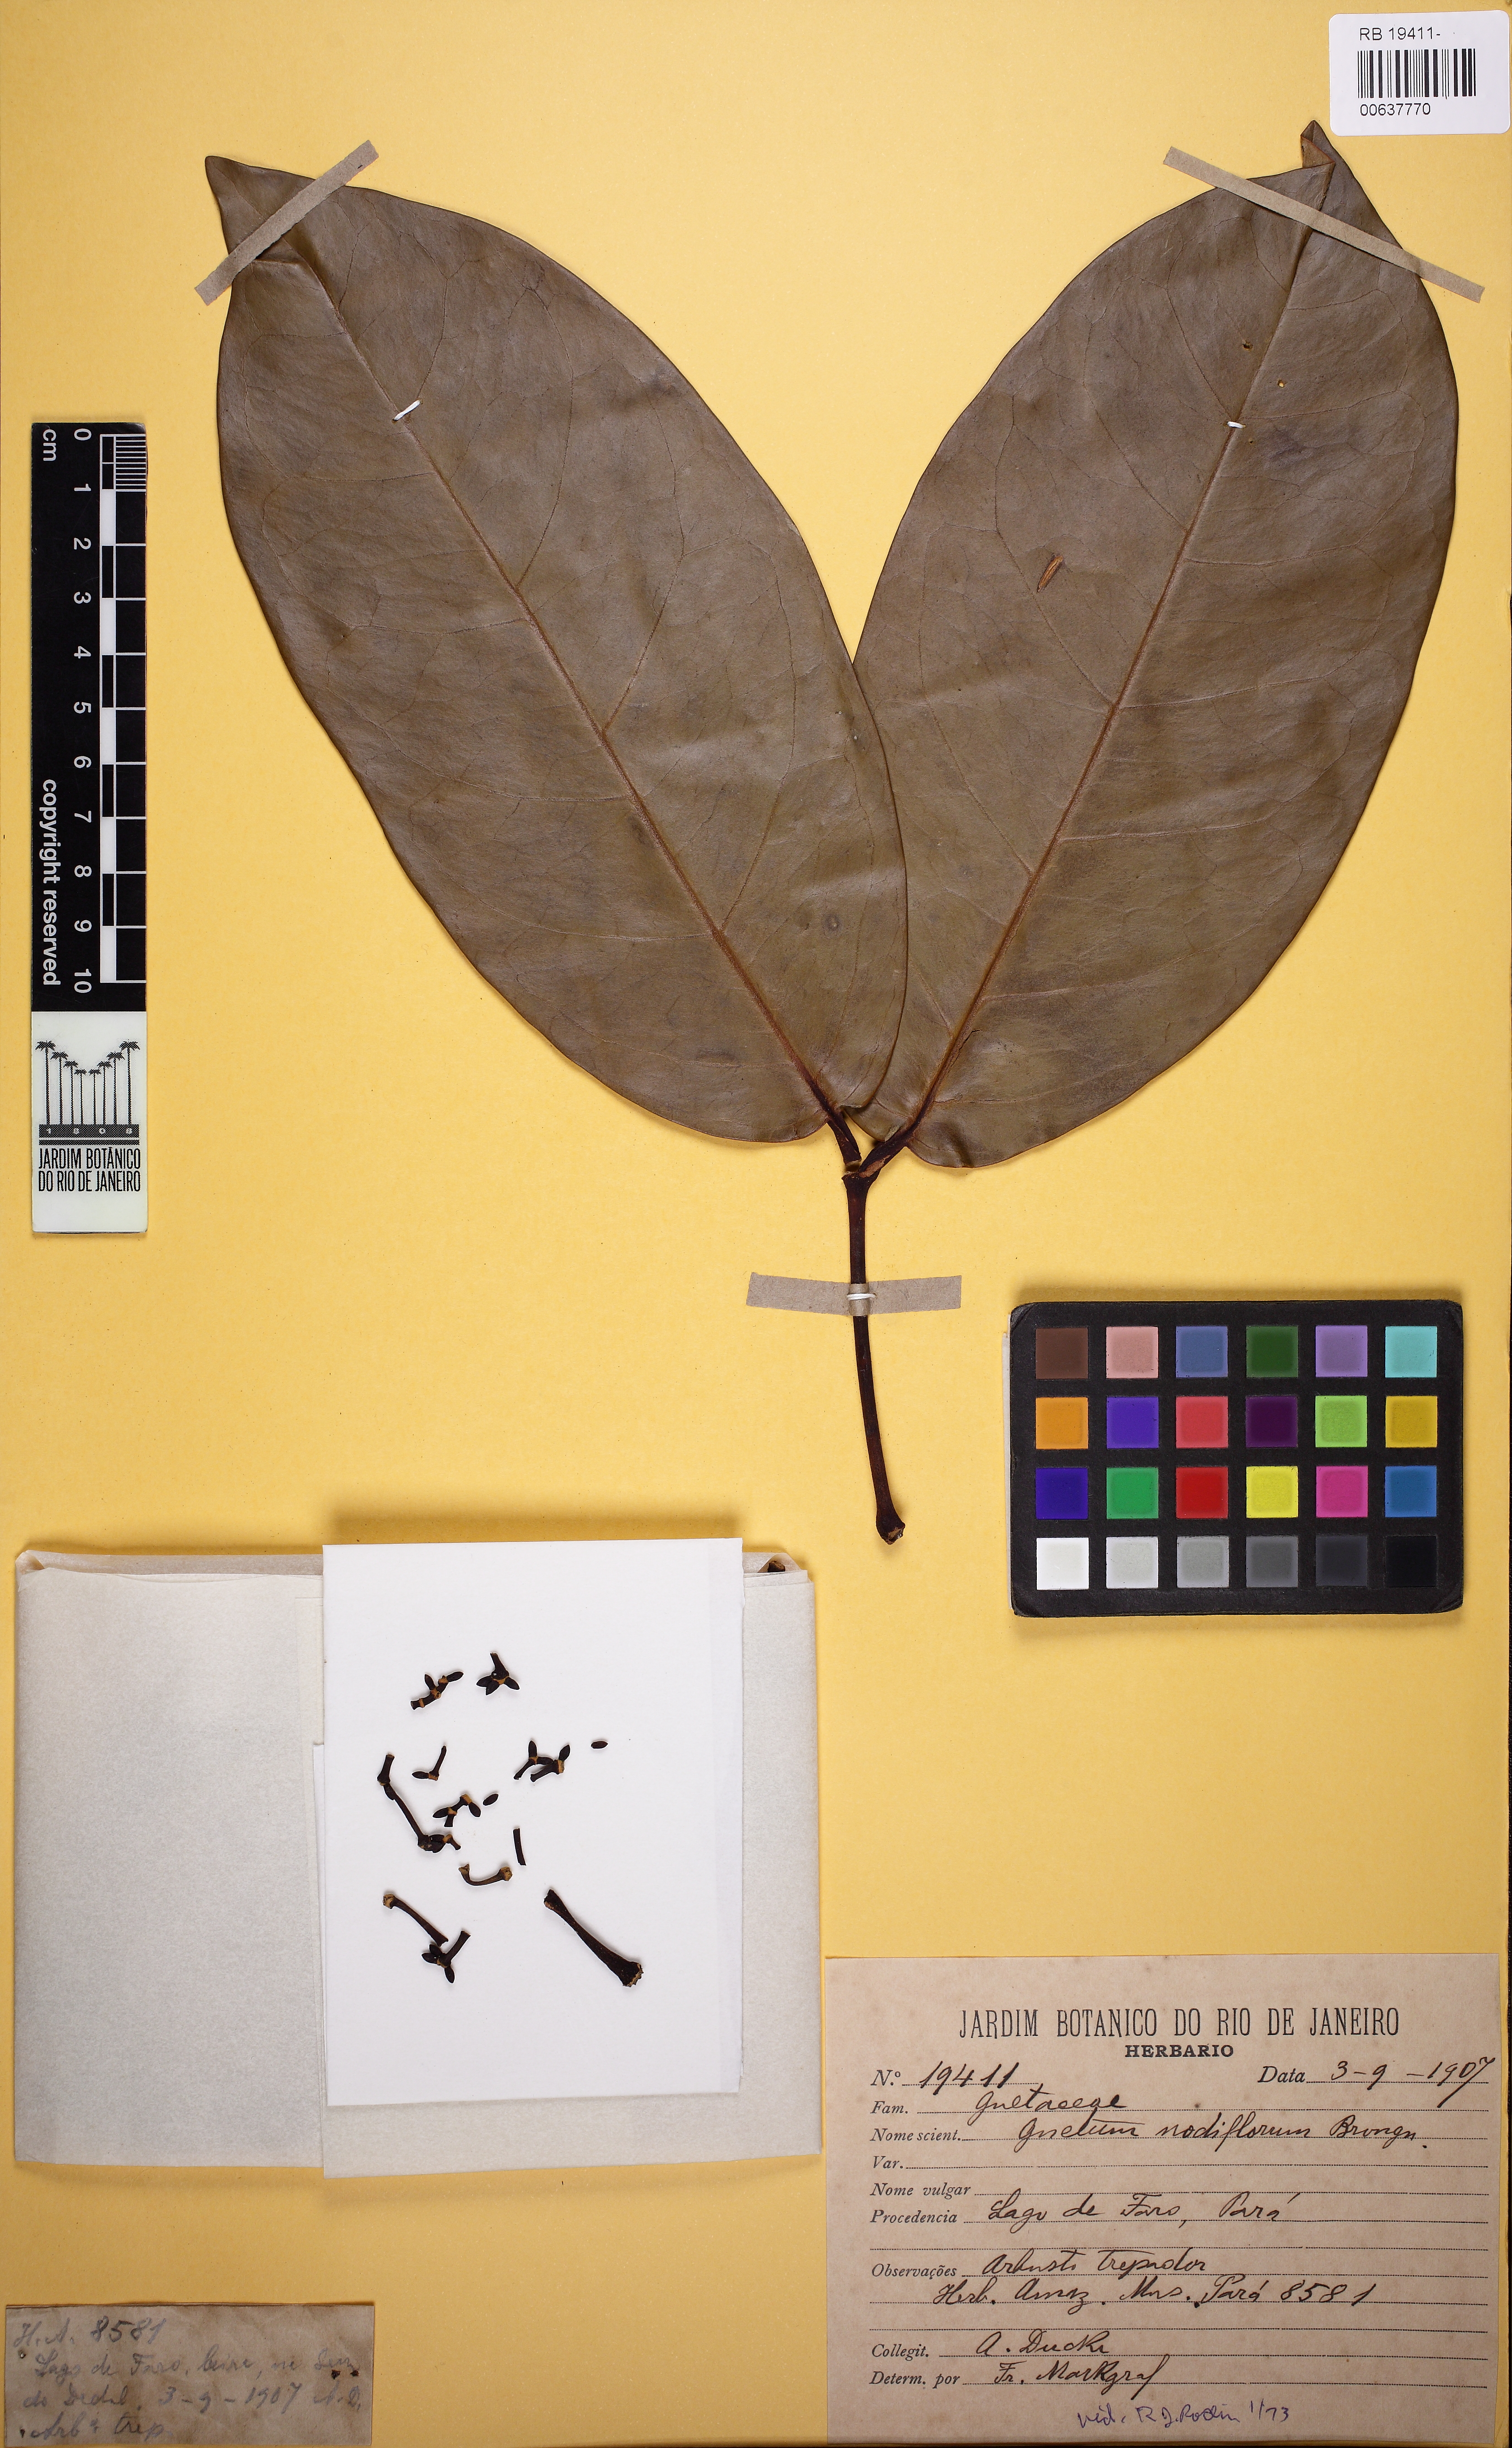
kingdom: Plantae
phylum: Tracheophyta
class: Gnetopsida
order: Gnetales
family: Gnetaceae
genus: Gnetum
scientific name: Gnetum nodiflorum
